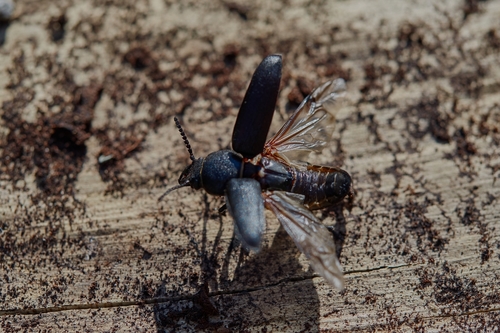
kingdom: Animalia
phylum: Arthropoda
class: Insecta
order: Coleoptera
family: Cerambycidae
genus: Spondylis
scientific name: Spondylis buprestoides
